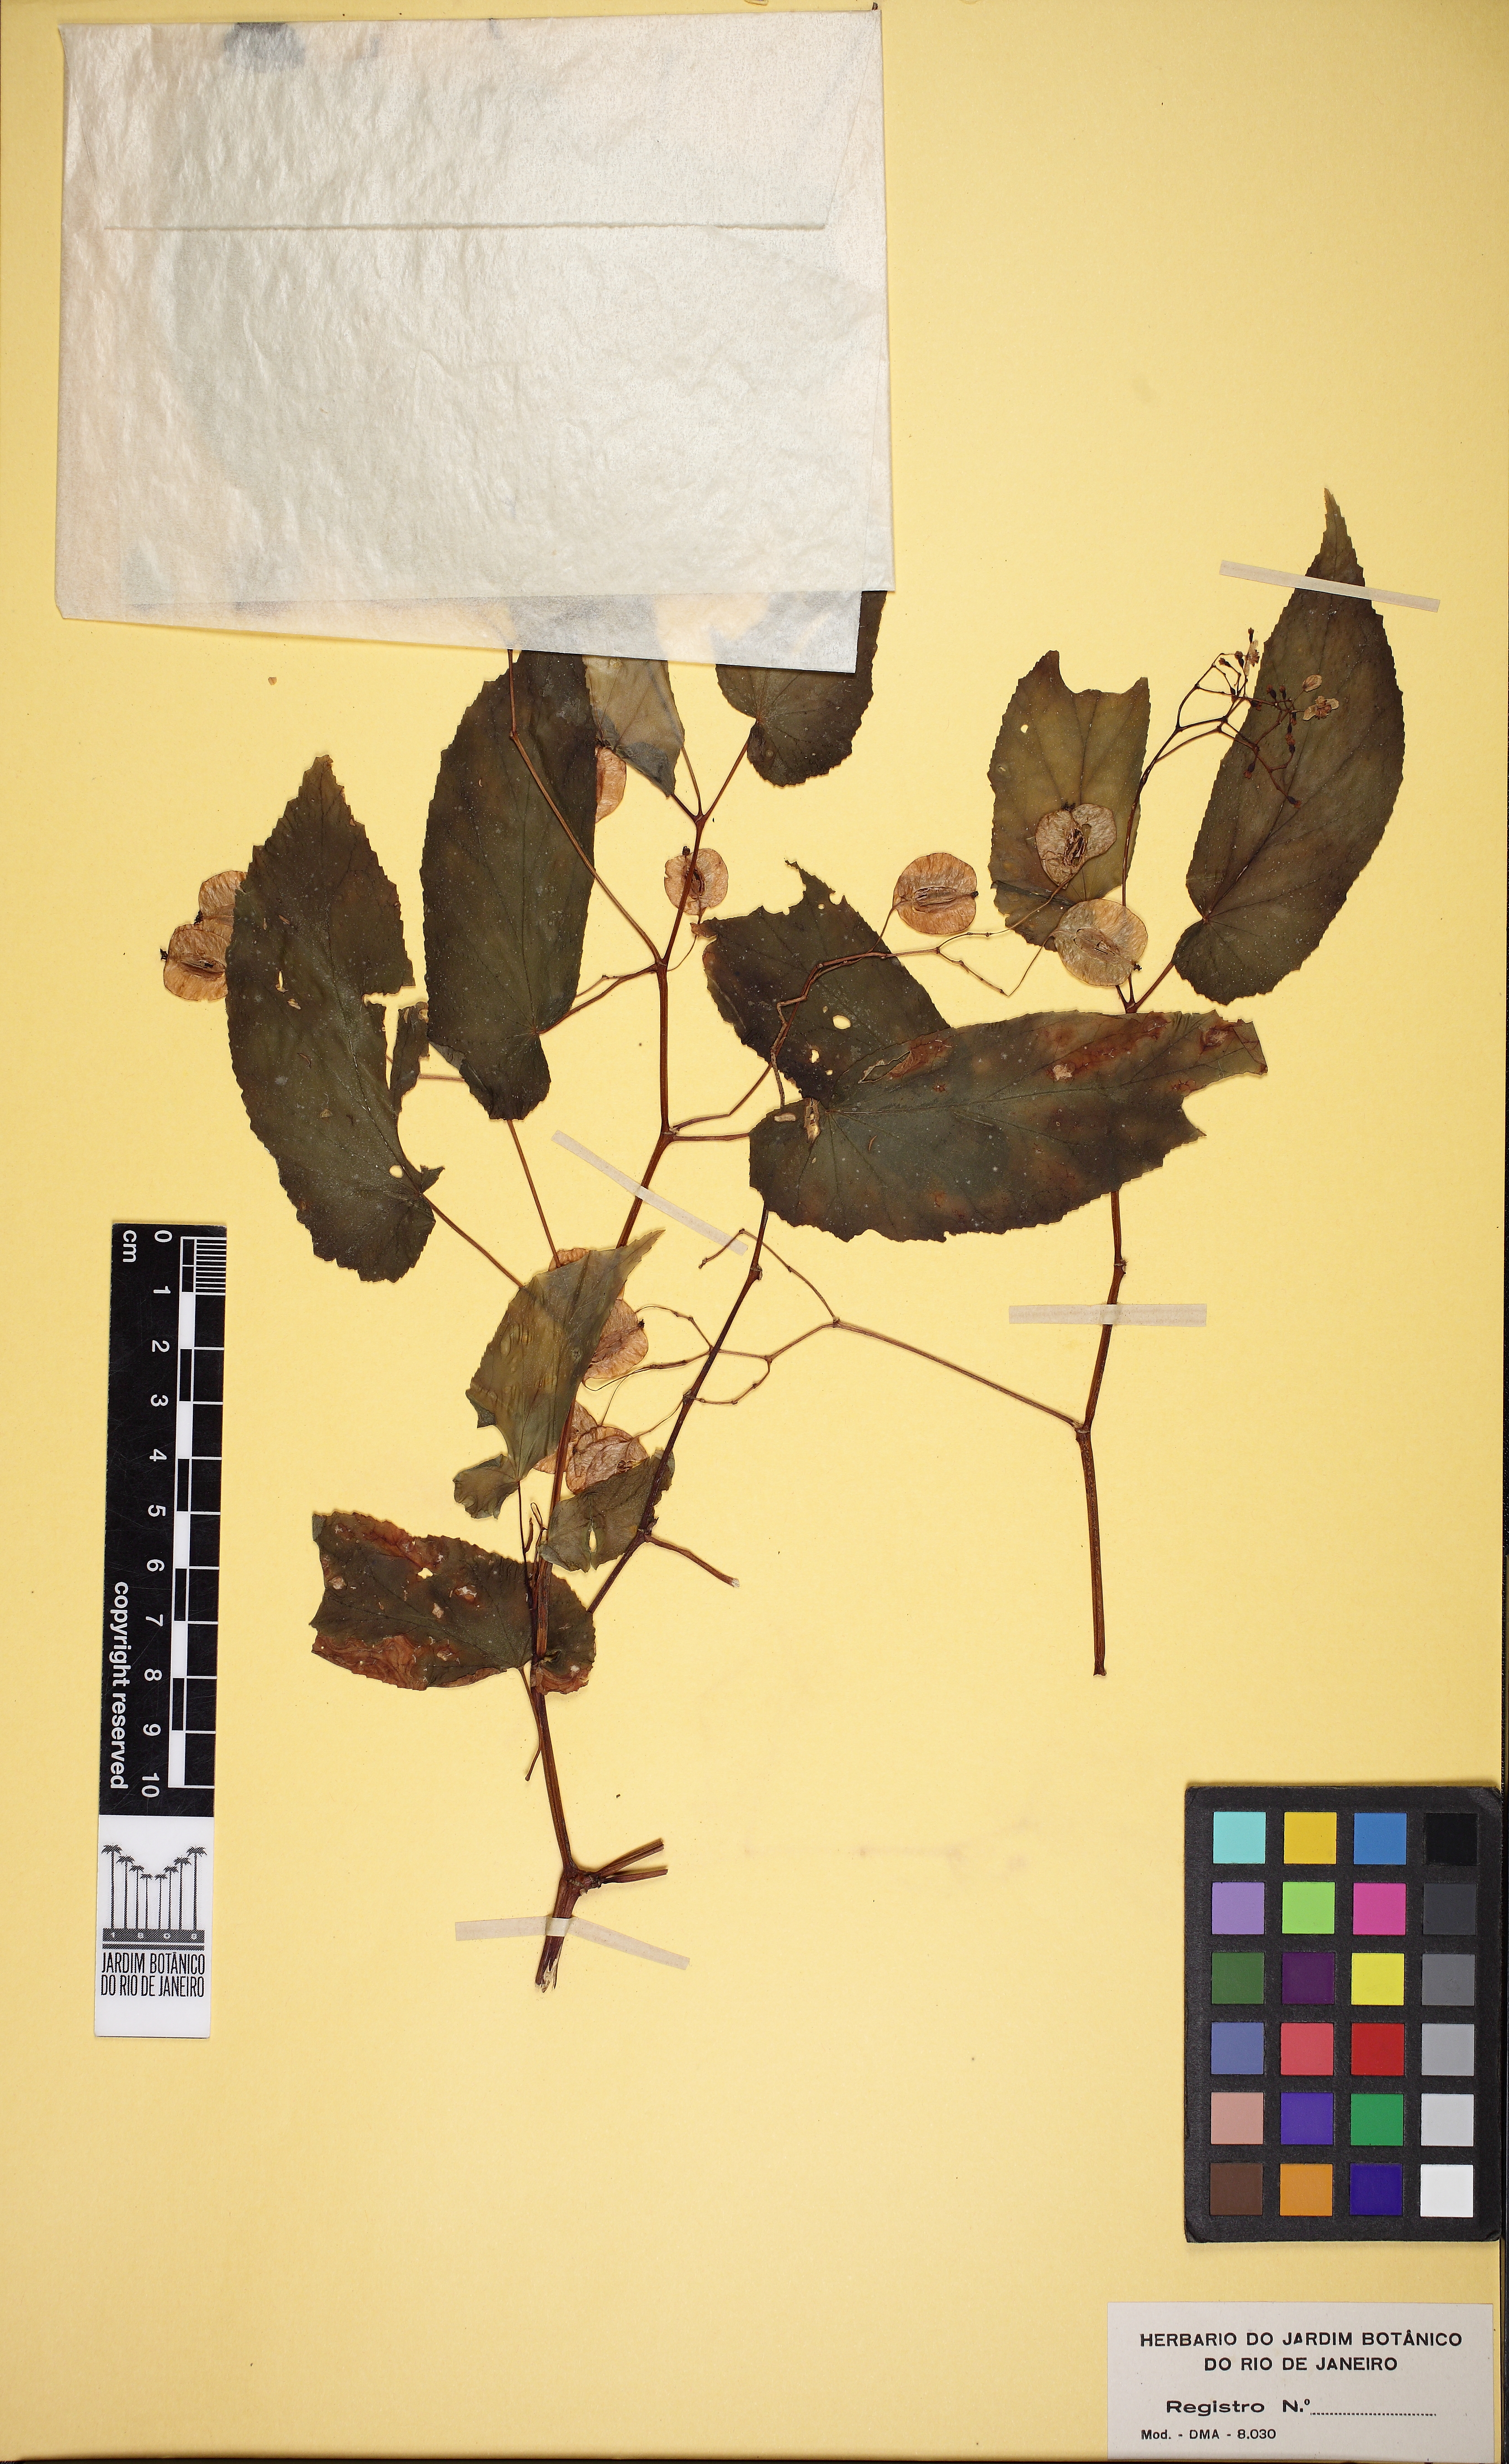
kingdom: Plantae
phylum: Tracheophyta
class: Magnoliopsida
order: Cucurbitales
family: Begoniaceae
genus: Begonia
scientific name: Begonia fischeri
